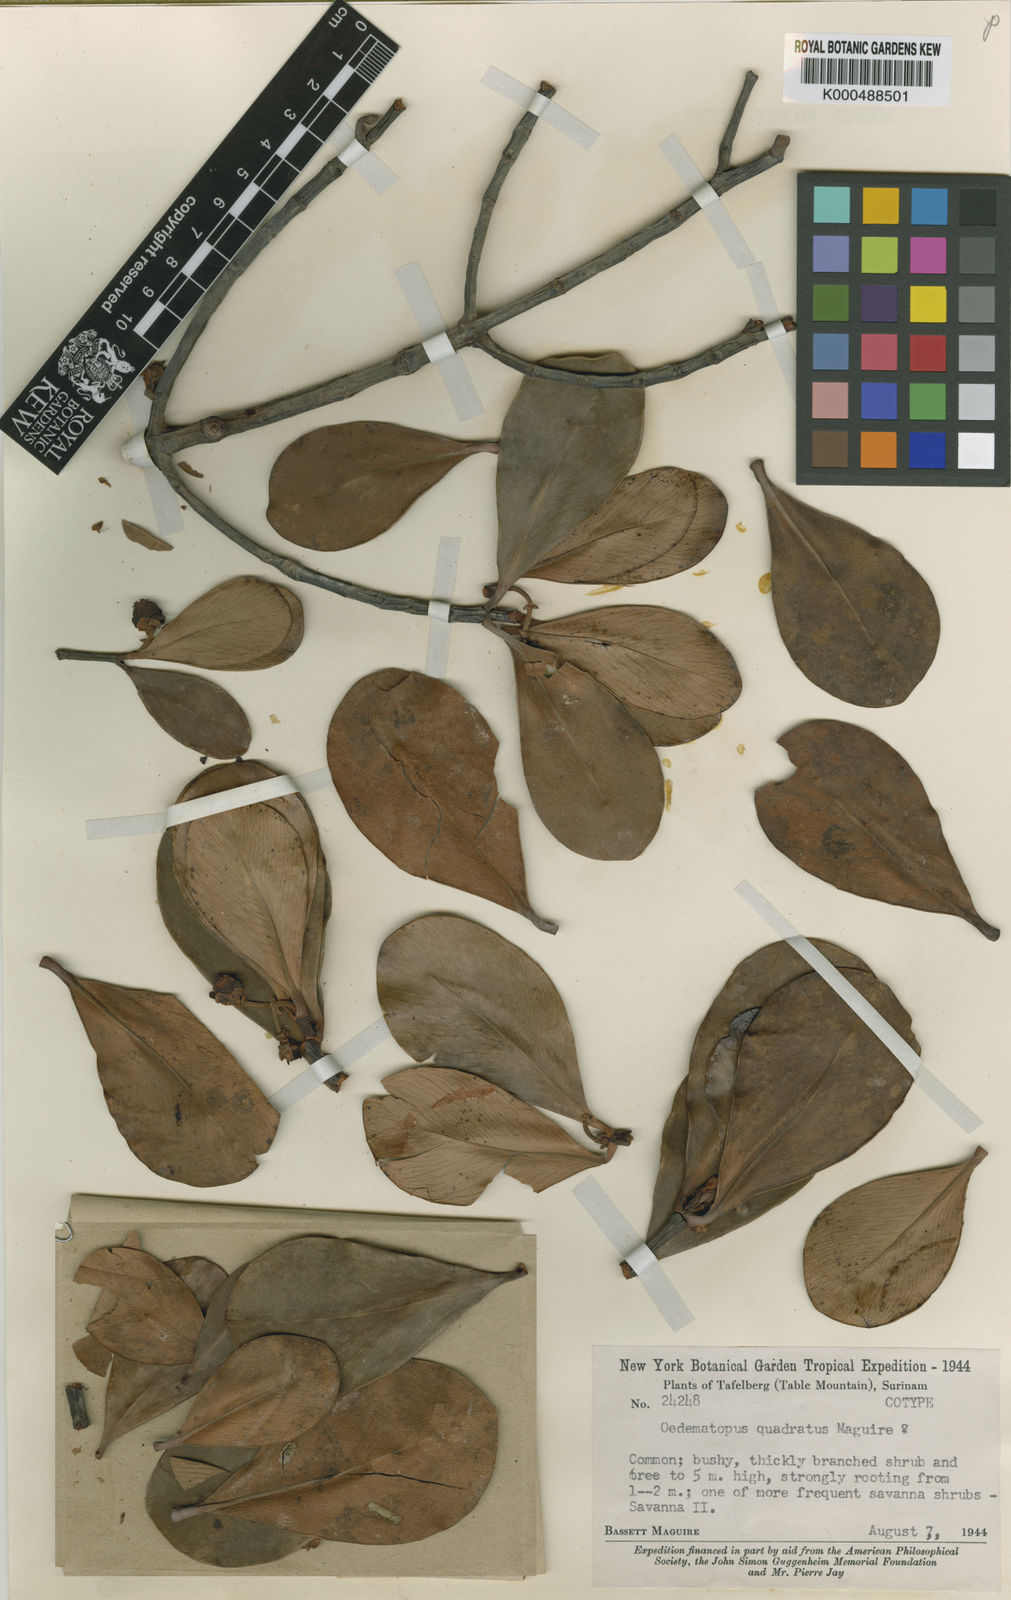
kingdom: Plantae
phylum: Tracheophyta
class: Magnoliopsida
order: Malpighiales
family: Clusiaceae
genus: Clusia
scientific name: Clusia obovata
